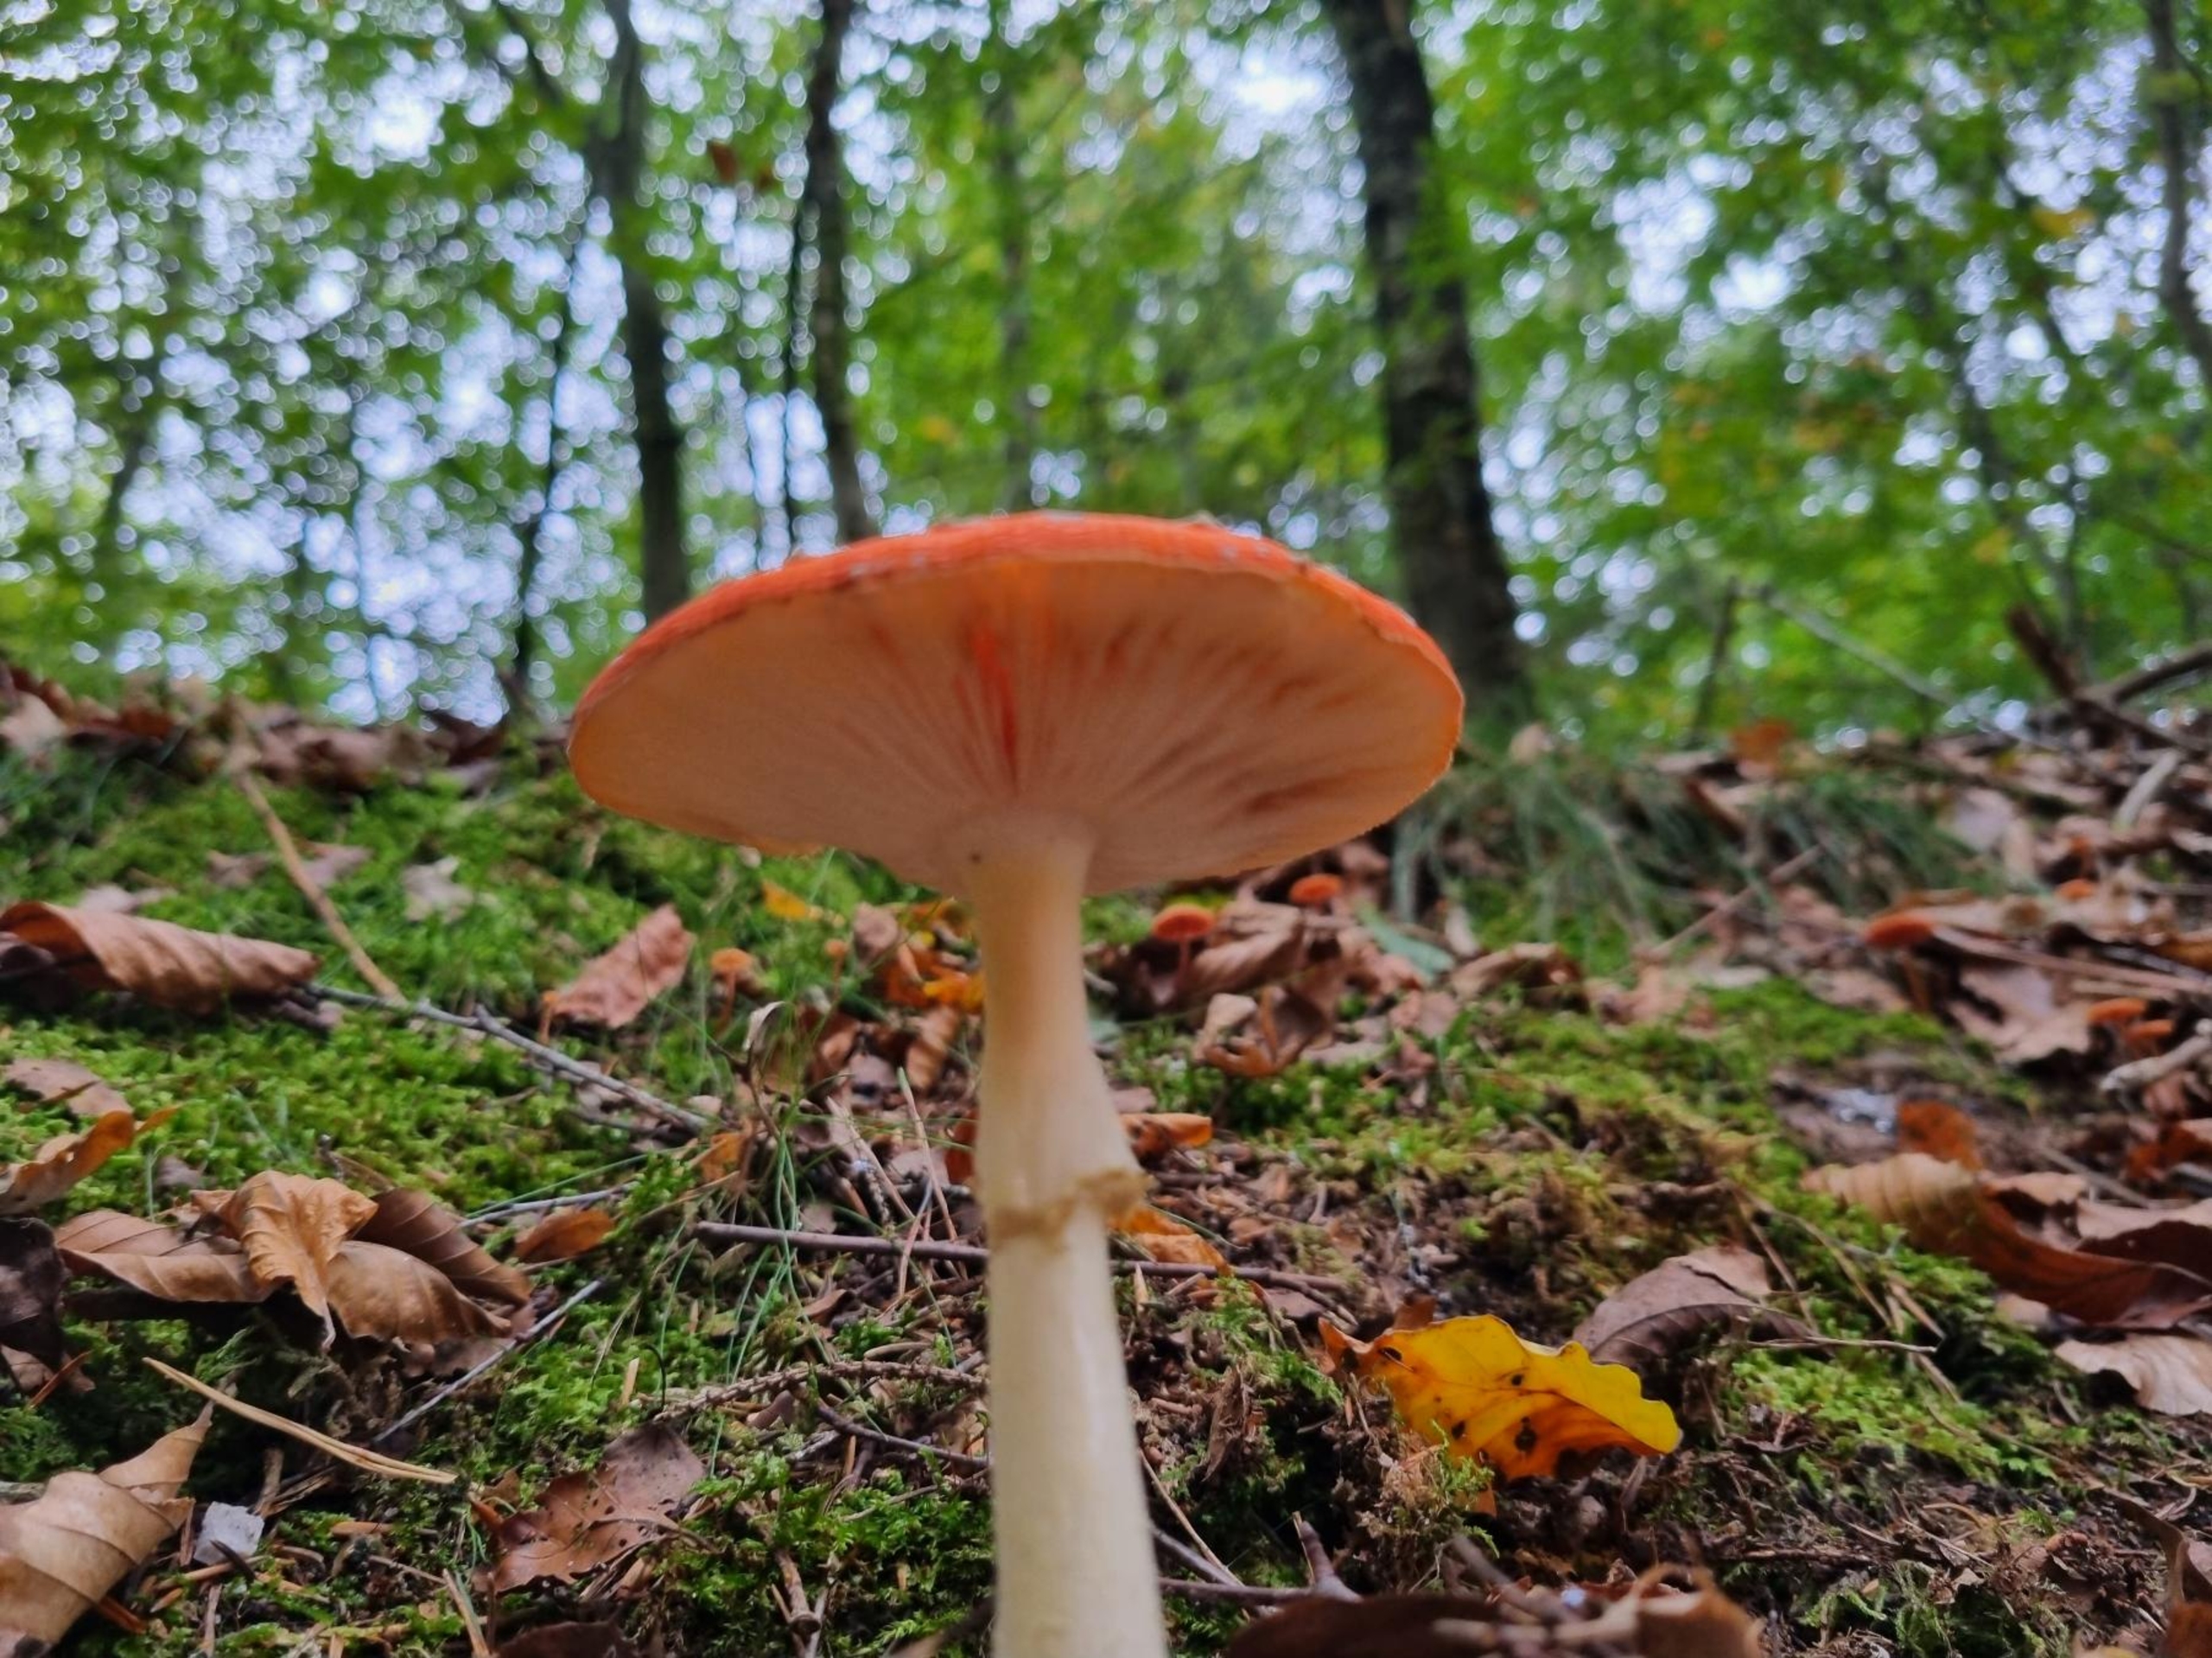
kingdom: Fungi
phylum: Basidiomycota
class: Agaricomycetes
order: Agaricales
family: Amanitaceae
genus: Amanita
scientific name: Amanita muscaria
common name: Rød fluesvamp
